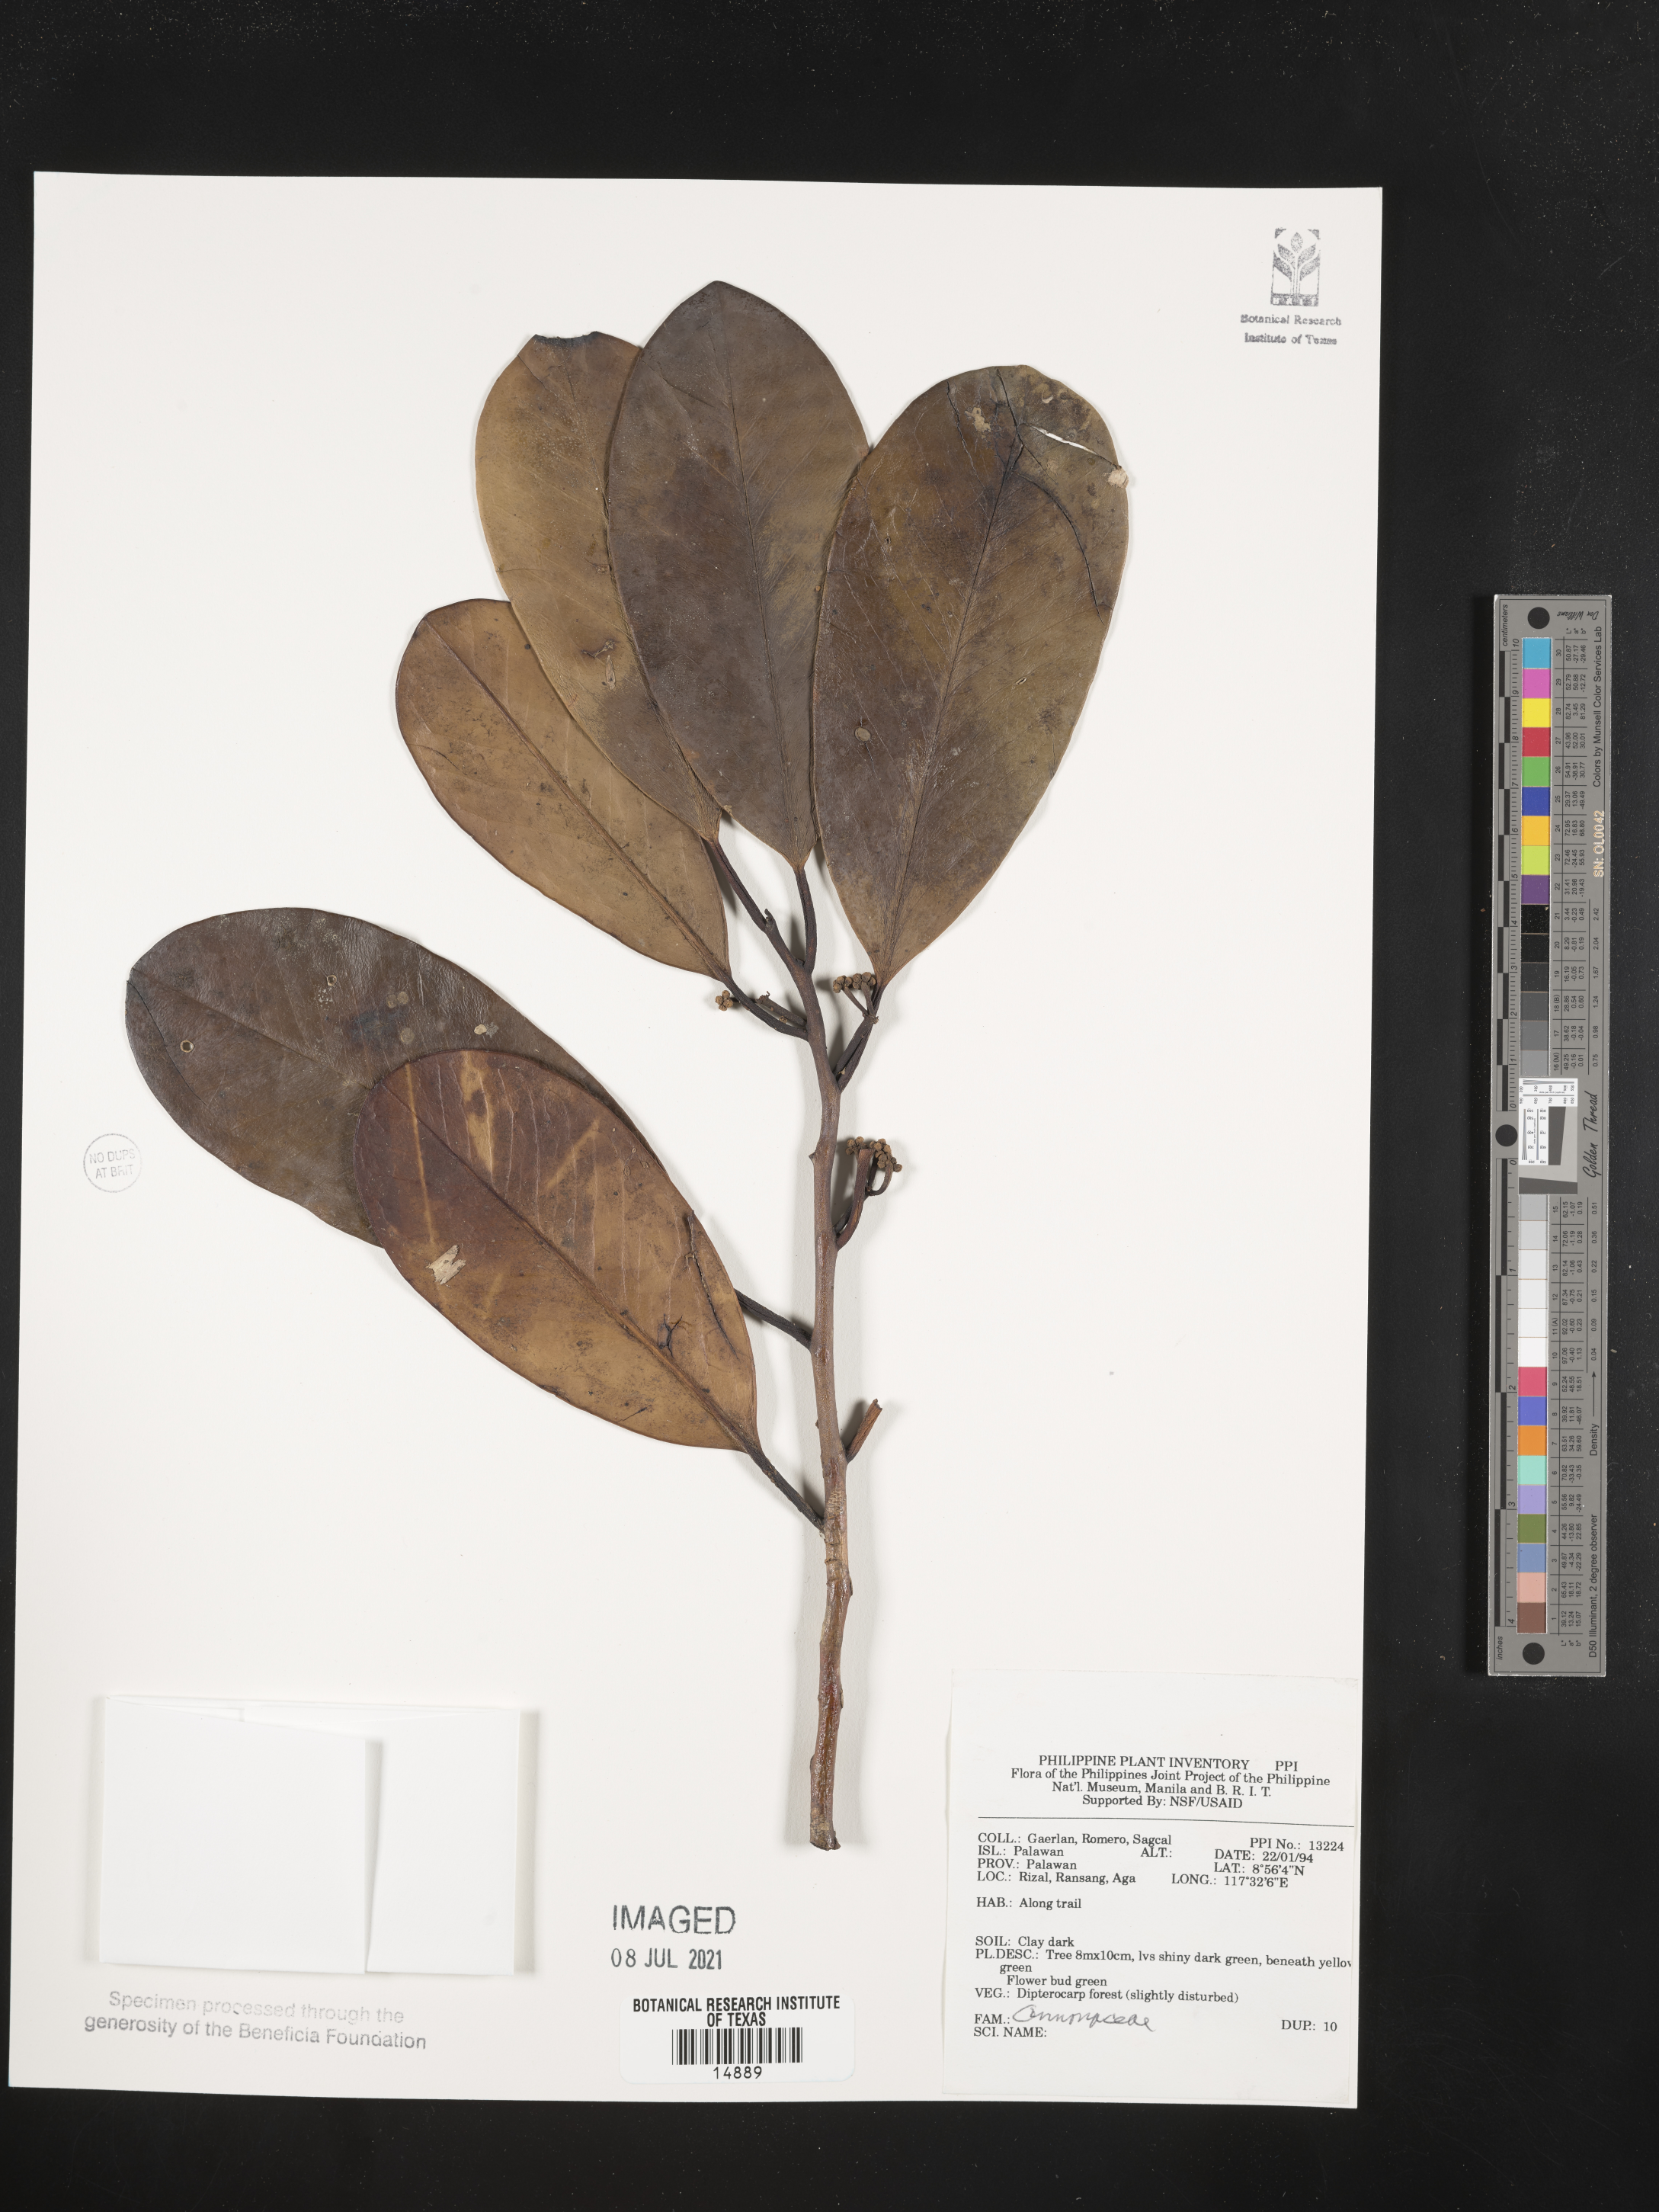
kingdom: Plantae
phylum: Tracheophyta
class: Magnoliopsida
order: Magnoliales
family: Annonaceae
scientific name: Annonaceae
